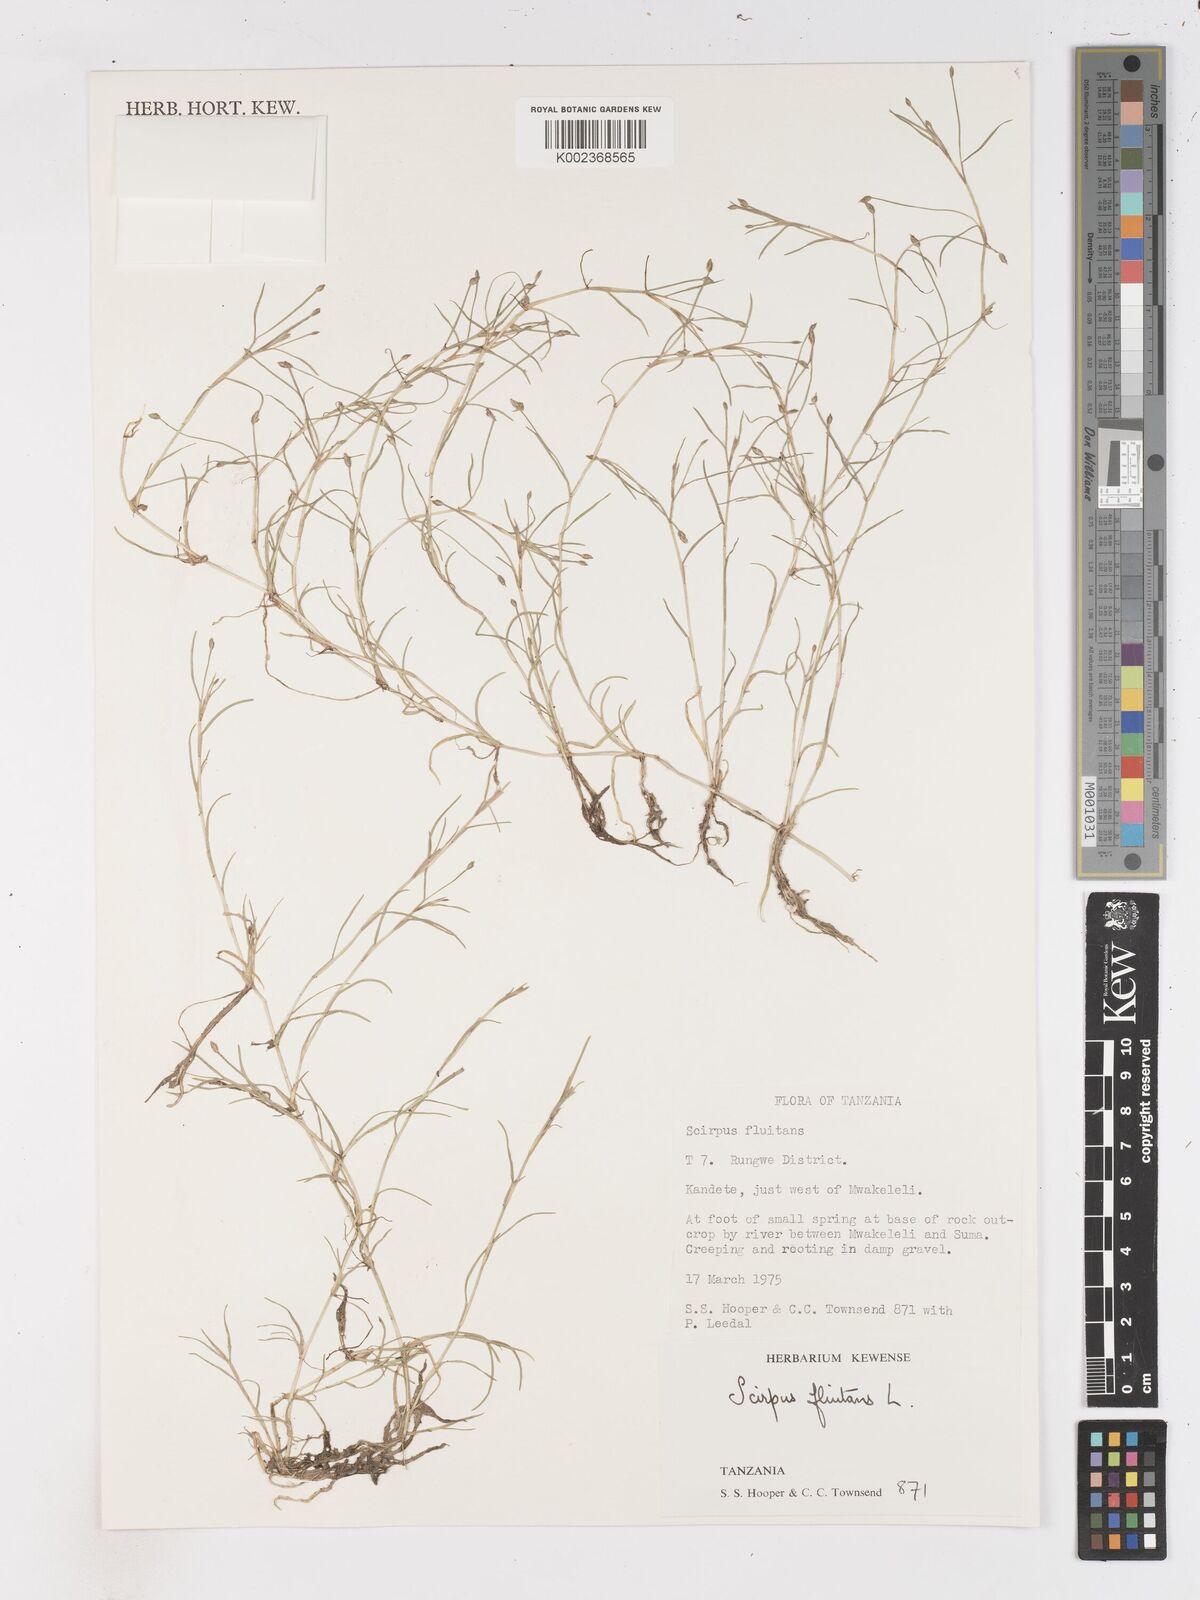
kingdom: Plantae
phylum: Tracheophyta
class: Liliopsida
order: Poales
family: Cyperaceae
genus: Isolepis
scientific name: Isolepis fluitans
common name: Floating club-rush
